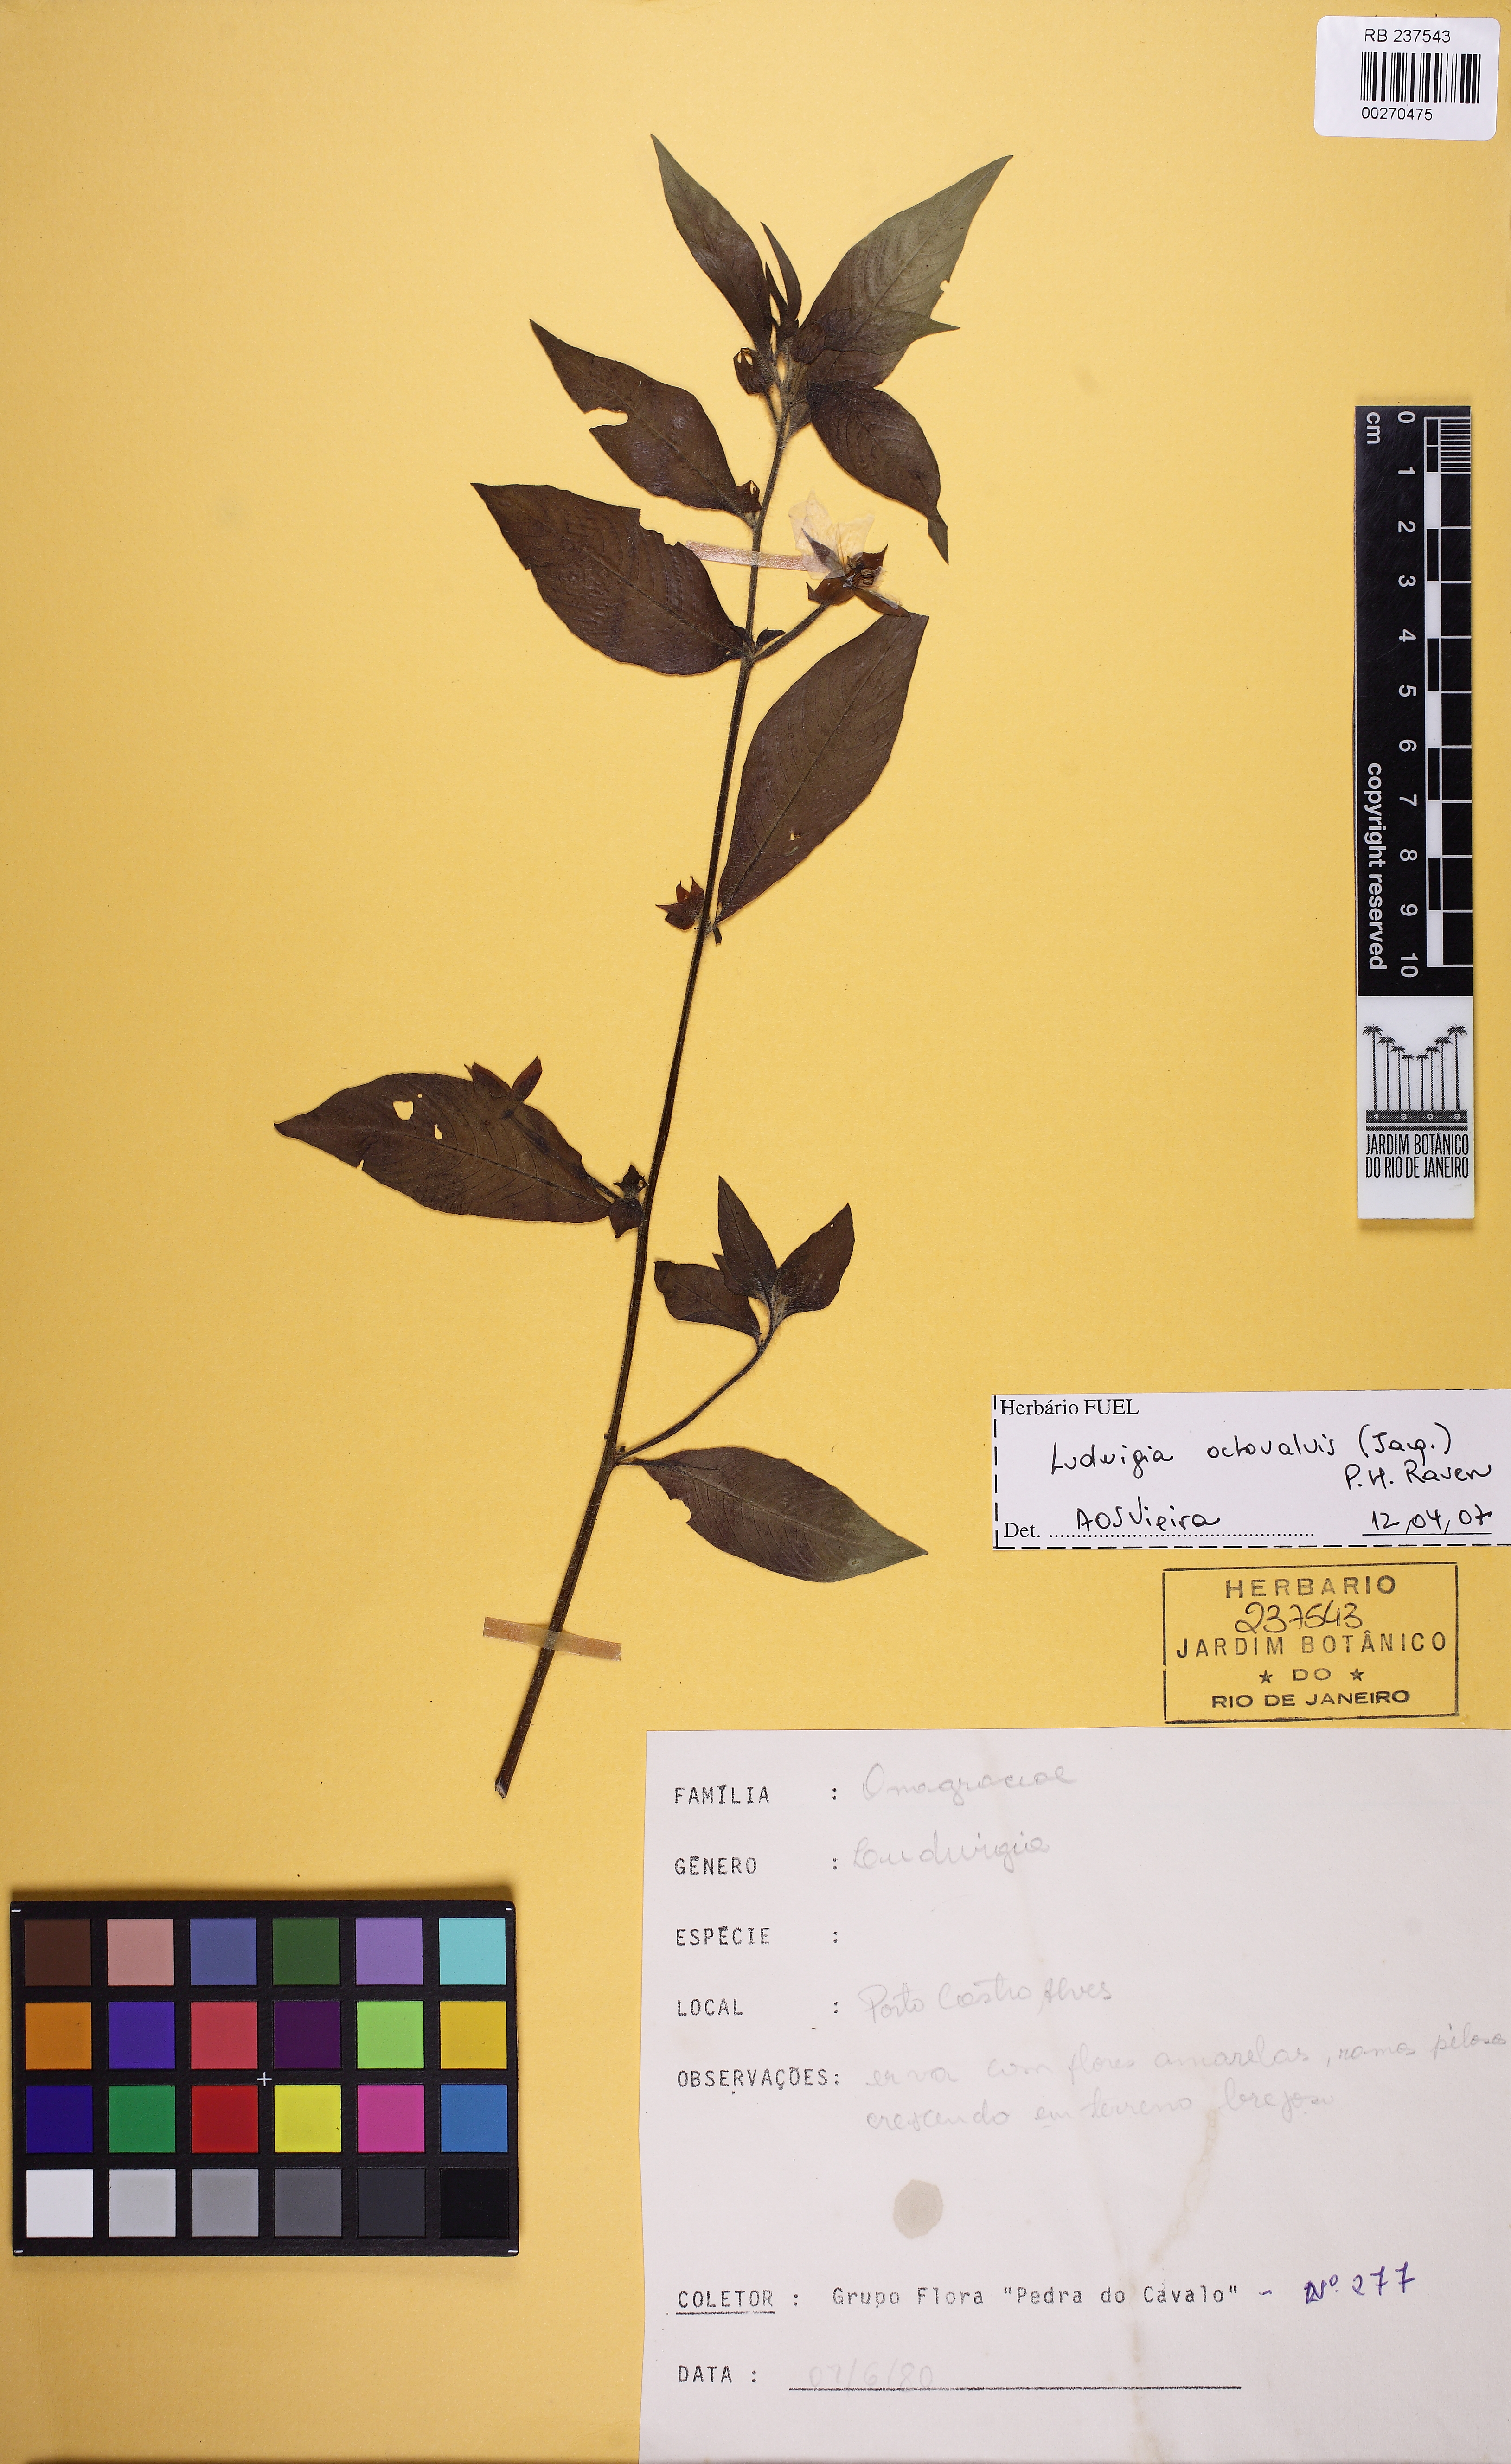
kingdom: Plantae
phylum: Tracheophyta
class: Magnoliopsida
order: Myrtales
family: Onagraceae
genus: Ludwigia
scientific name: Ludwigia octovalvis
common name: Water-primrose
